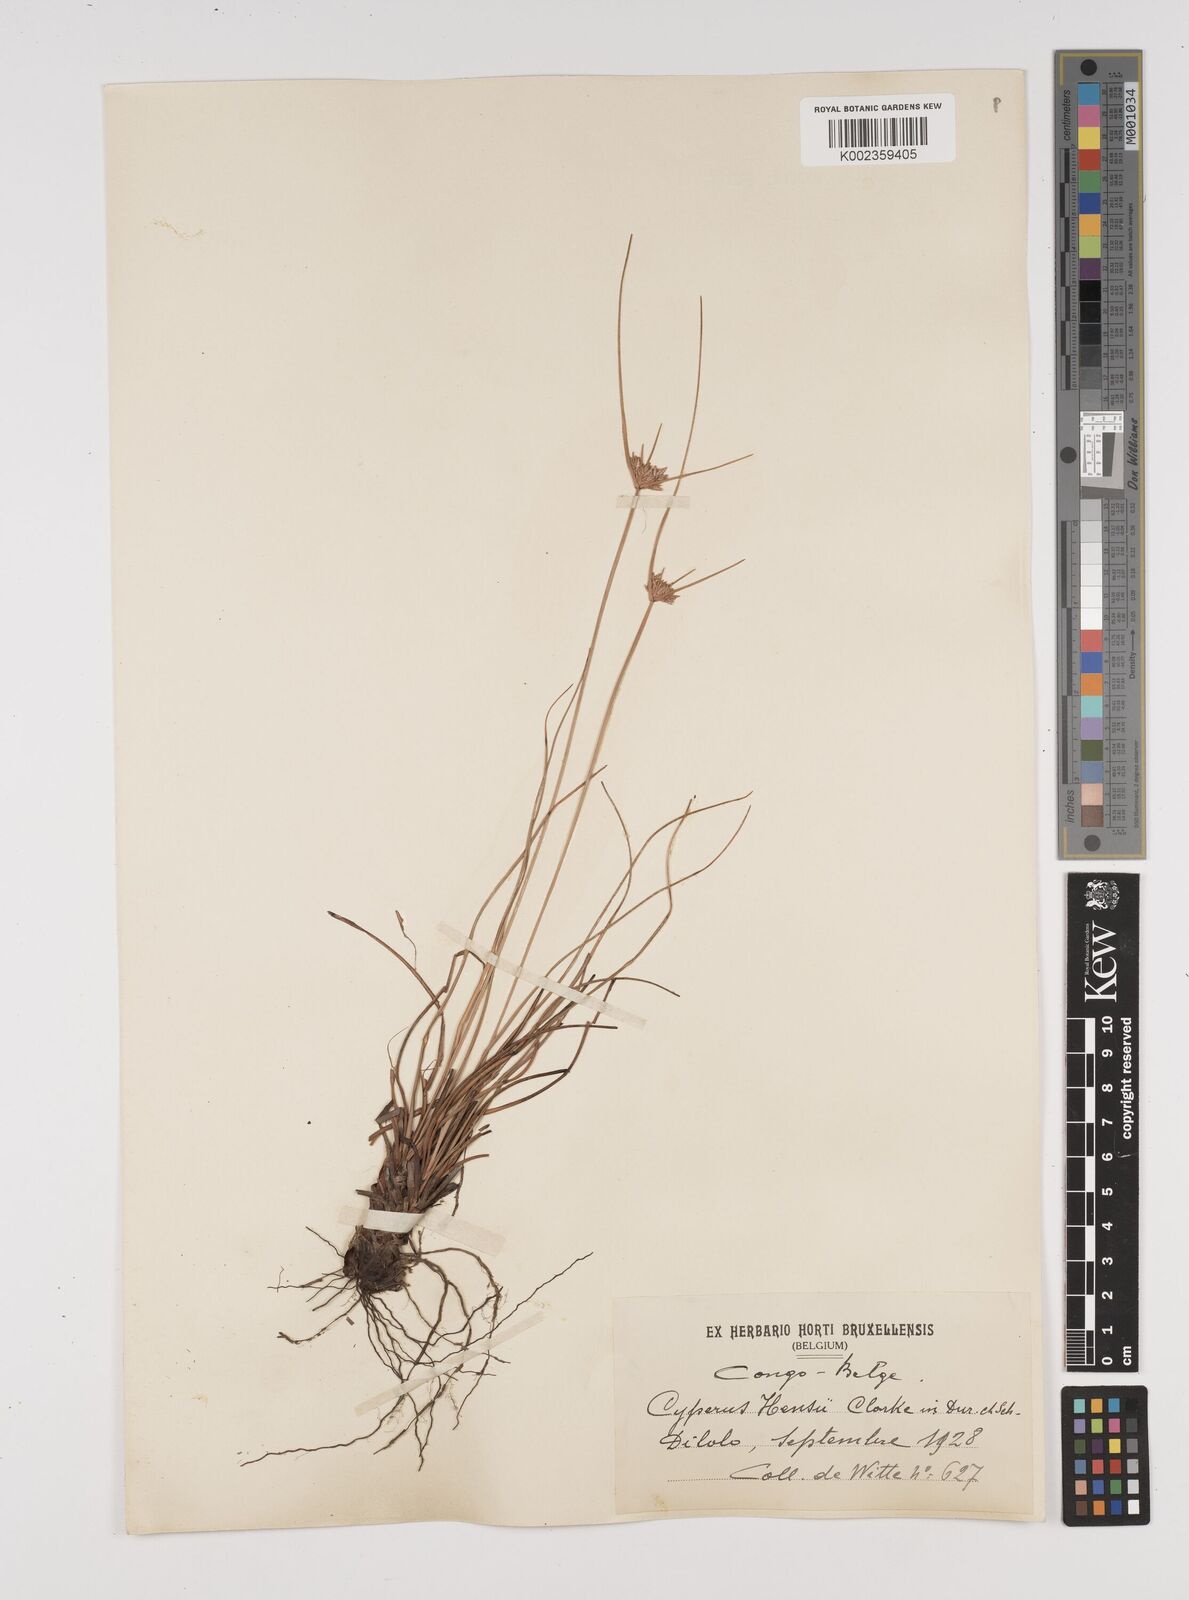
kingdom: Plantae
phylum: Tracheophyta
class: Liliopsida
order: Poales
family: Cyperaceae
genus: Cyperus
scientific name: Cyperus
